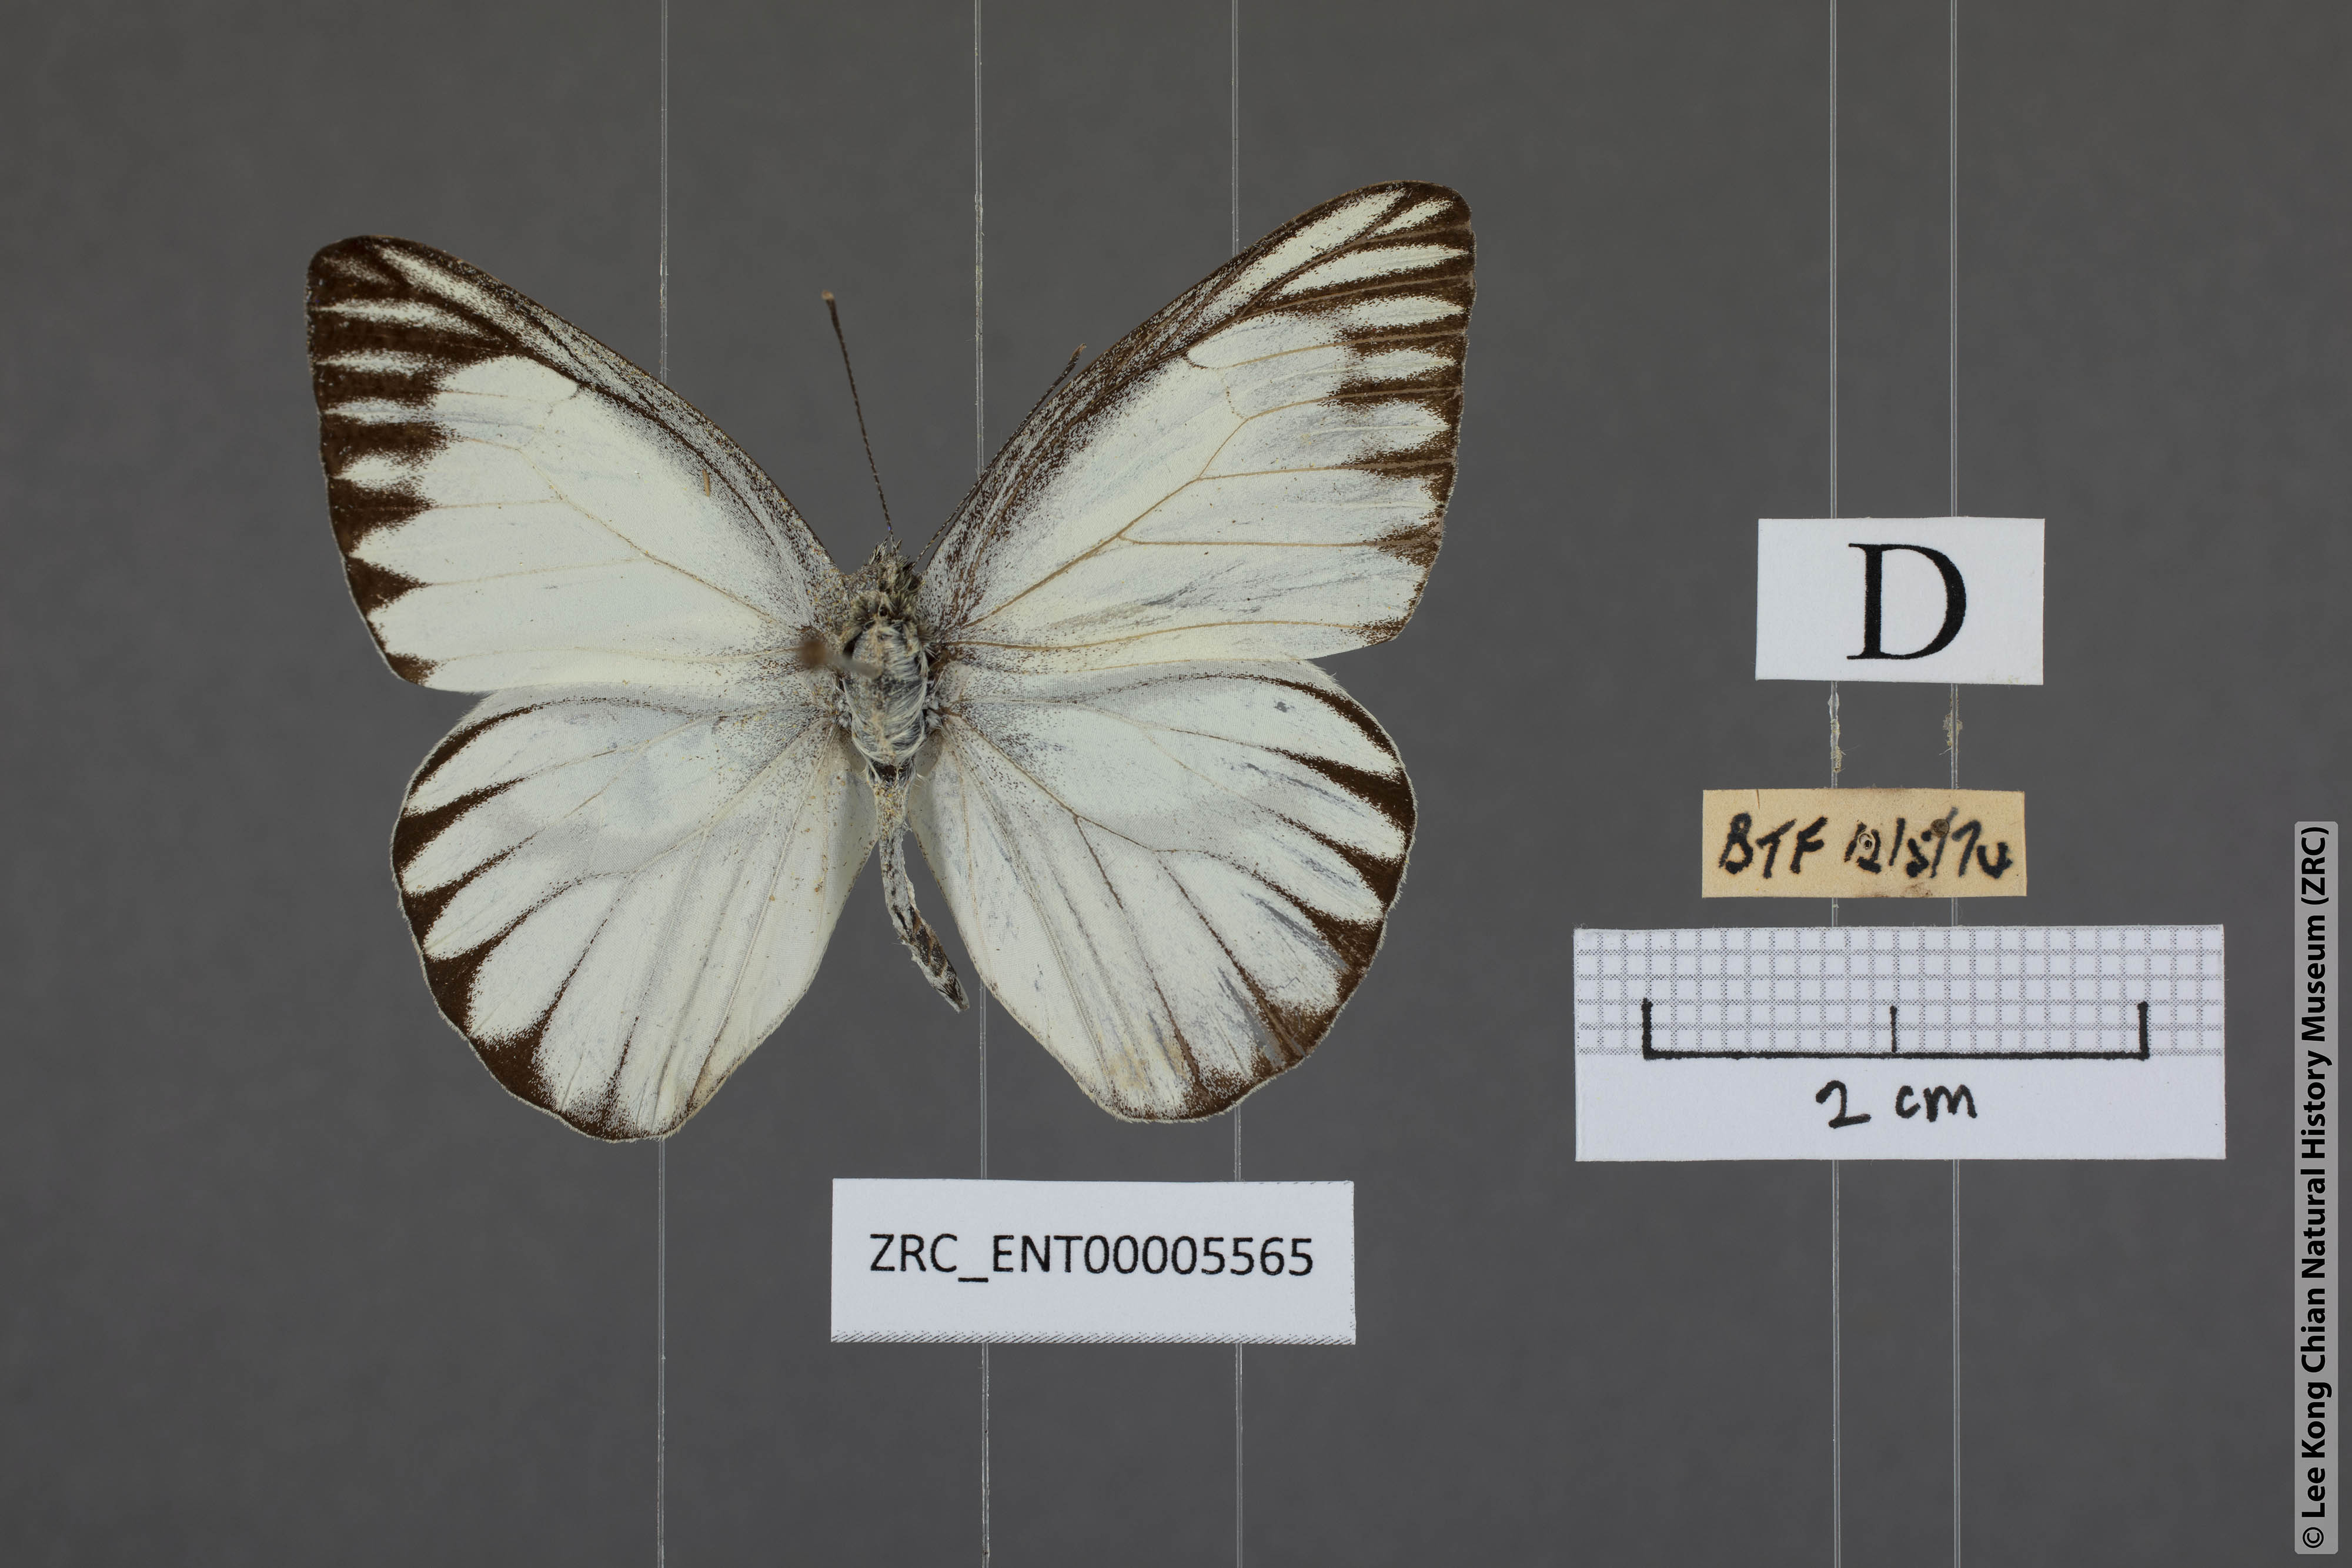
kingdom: Animalia
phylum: Arthropoda
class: Insecta
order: Lepidoptera
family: Pieridae
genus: Appias
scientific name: Appias libythea
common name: Striped albatross
